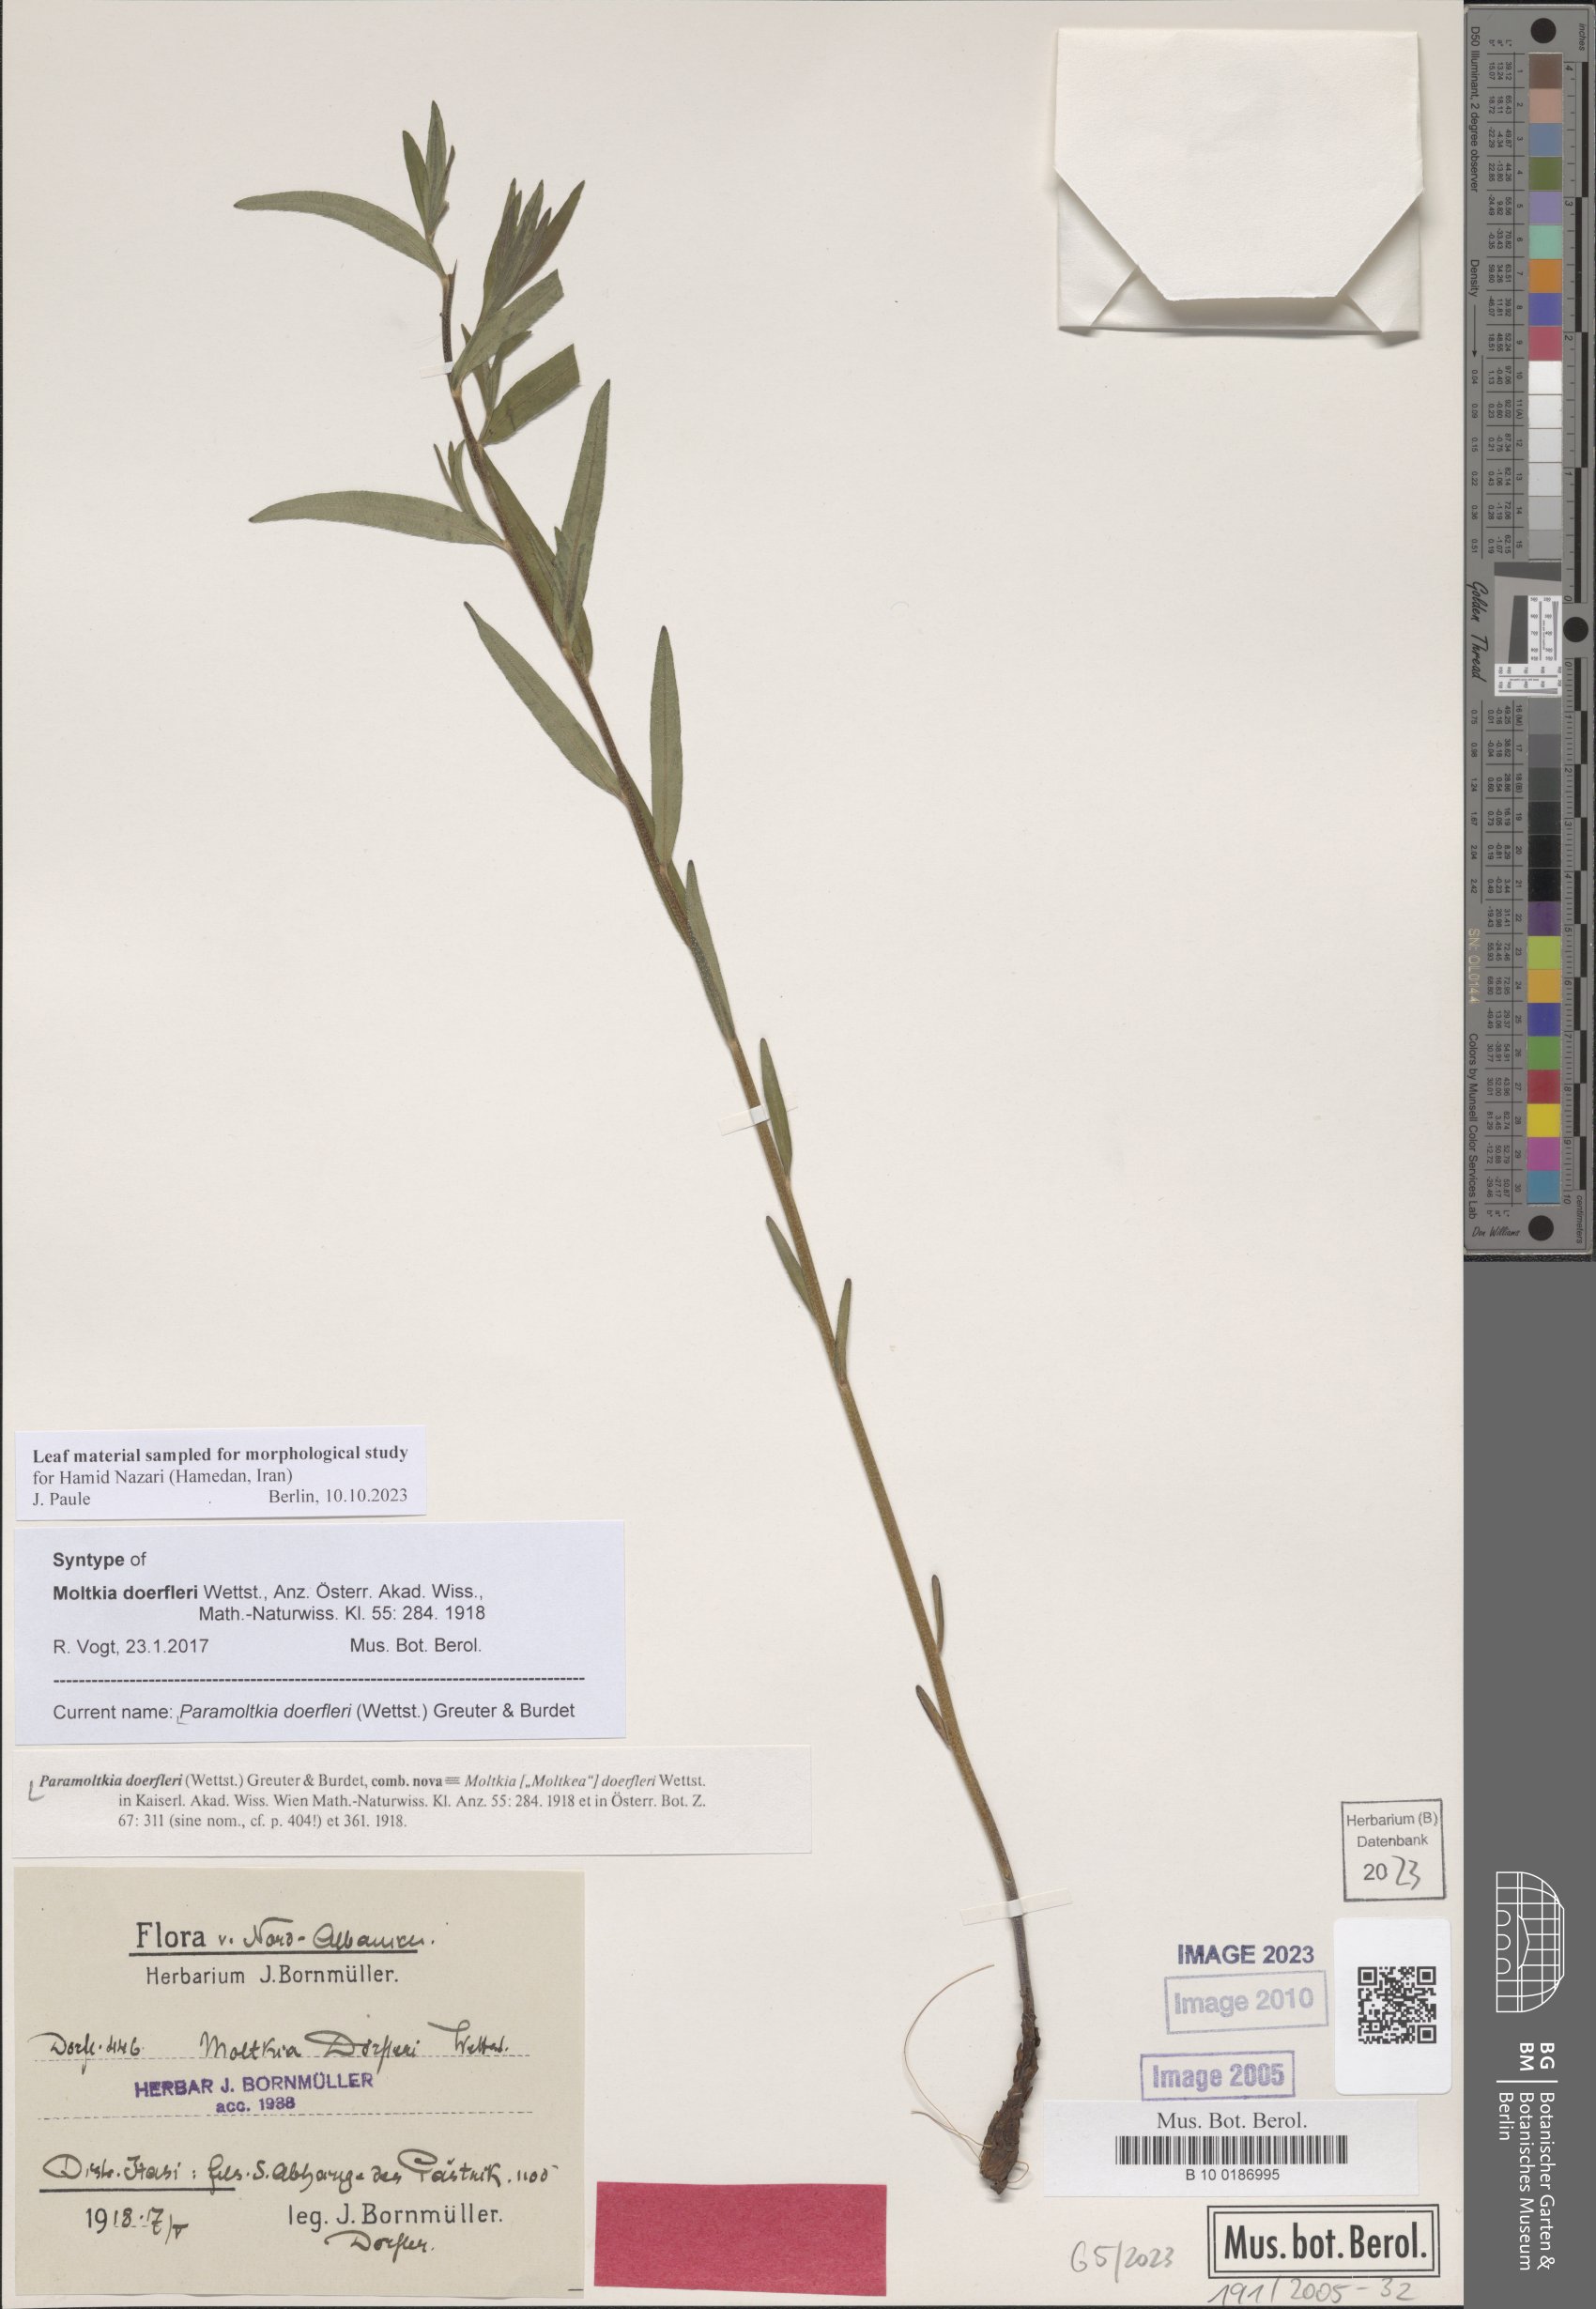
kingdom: Plantae
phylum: Tracheophyta
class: Magnoliopsida
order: Boraginales
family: Boraginaceae
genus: Paramoltkia
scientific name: Paramoltkia doerfleri
